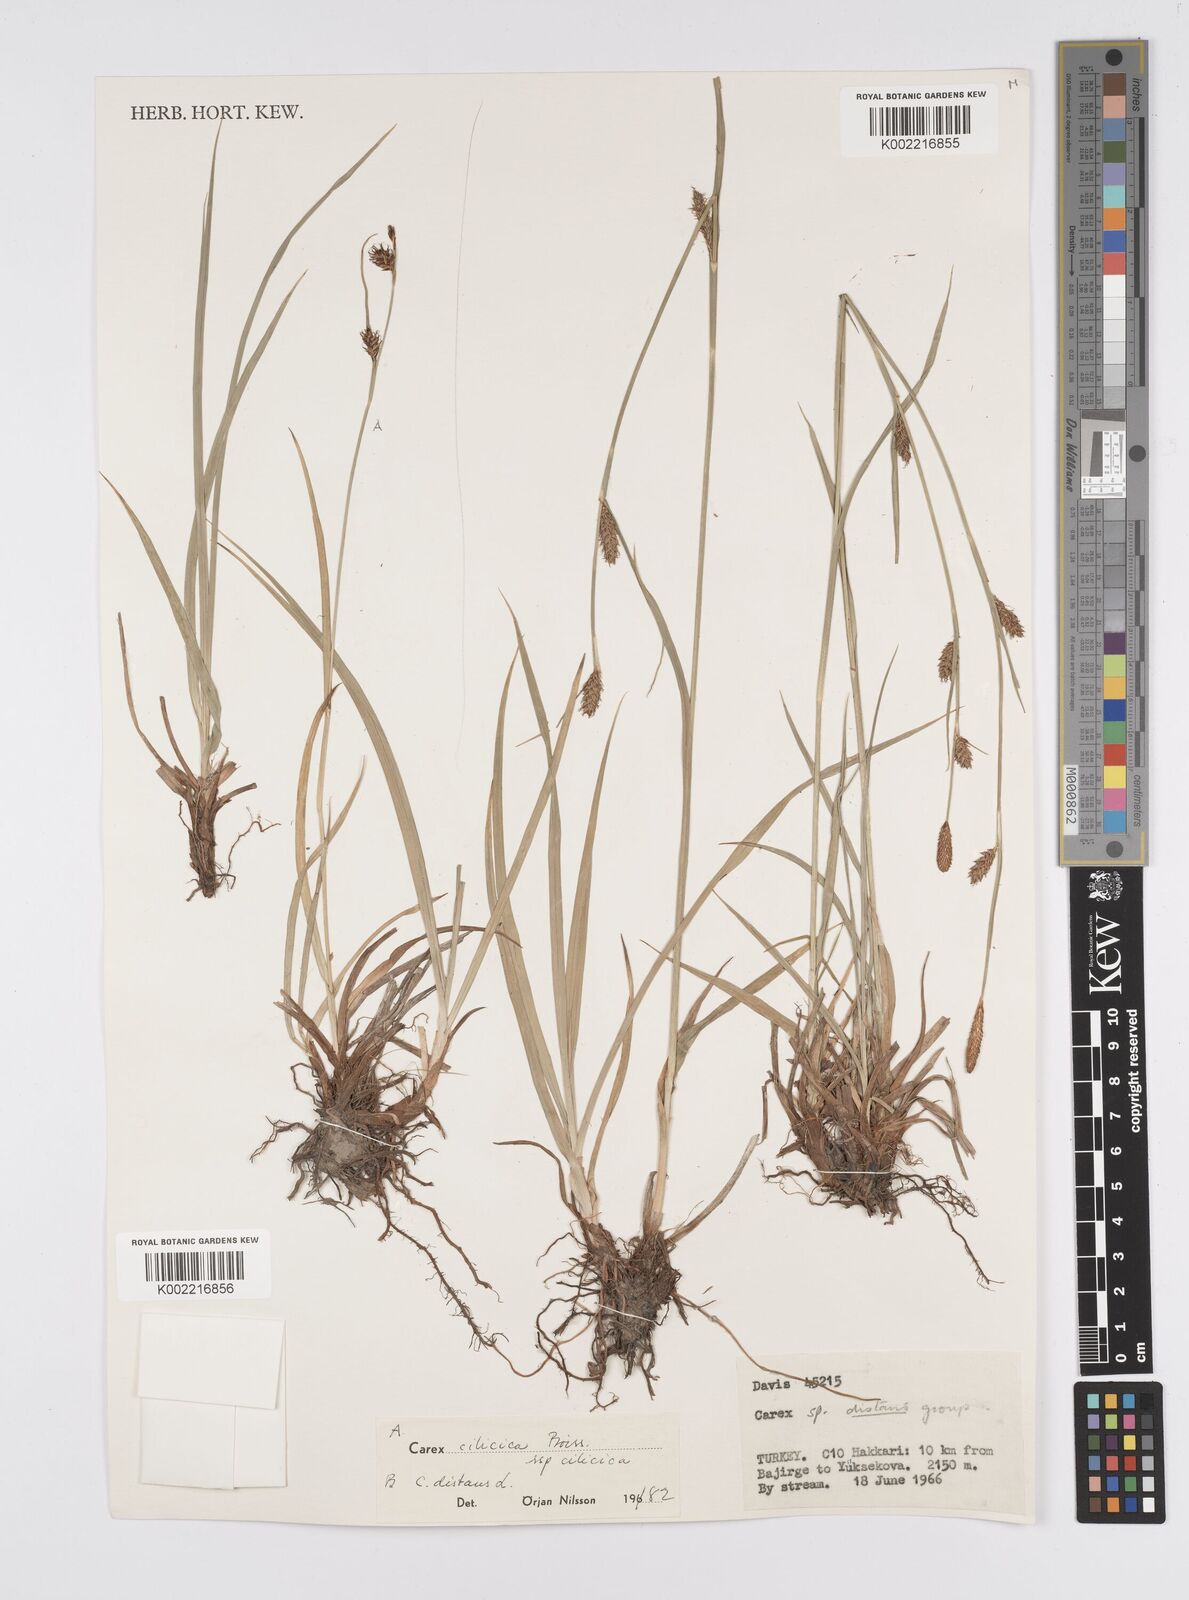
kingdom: Plantae
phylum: Tracheophyta
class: Liliopsida
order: Poales
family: Cyperaceae
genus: Carex
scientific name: Carex distans
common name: Distant sedge
